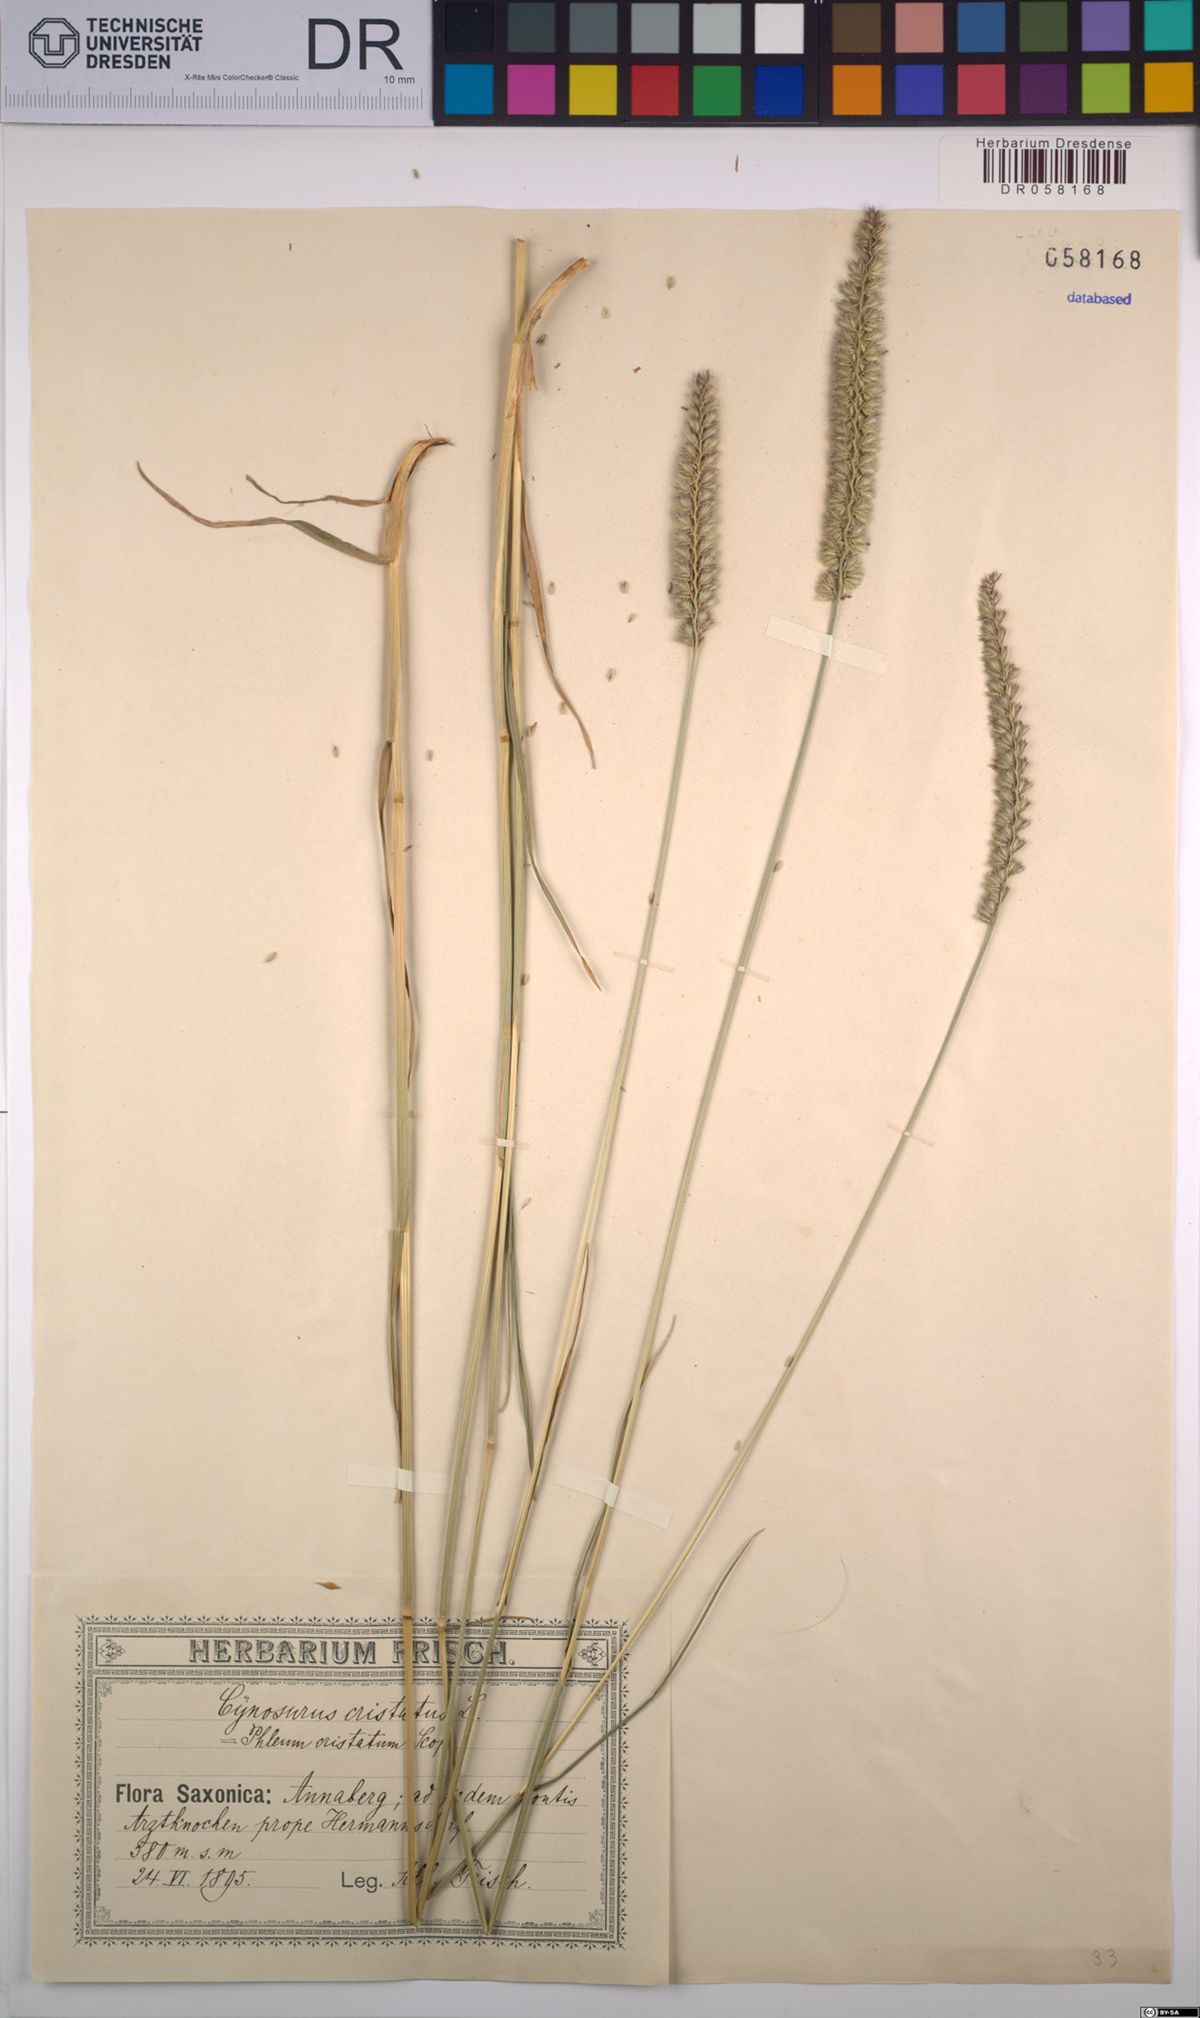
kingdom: Plantae
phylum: Tracheophyta
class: Liliopsida
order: Poales
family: Poaceae
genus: Cynosurus
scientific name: Cynosurus cristatus
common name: Crested dog's-tail
